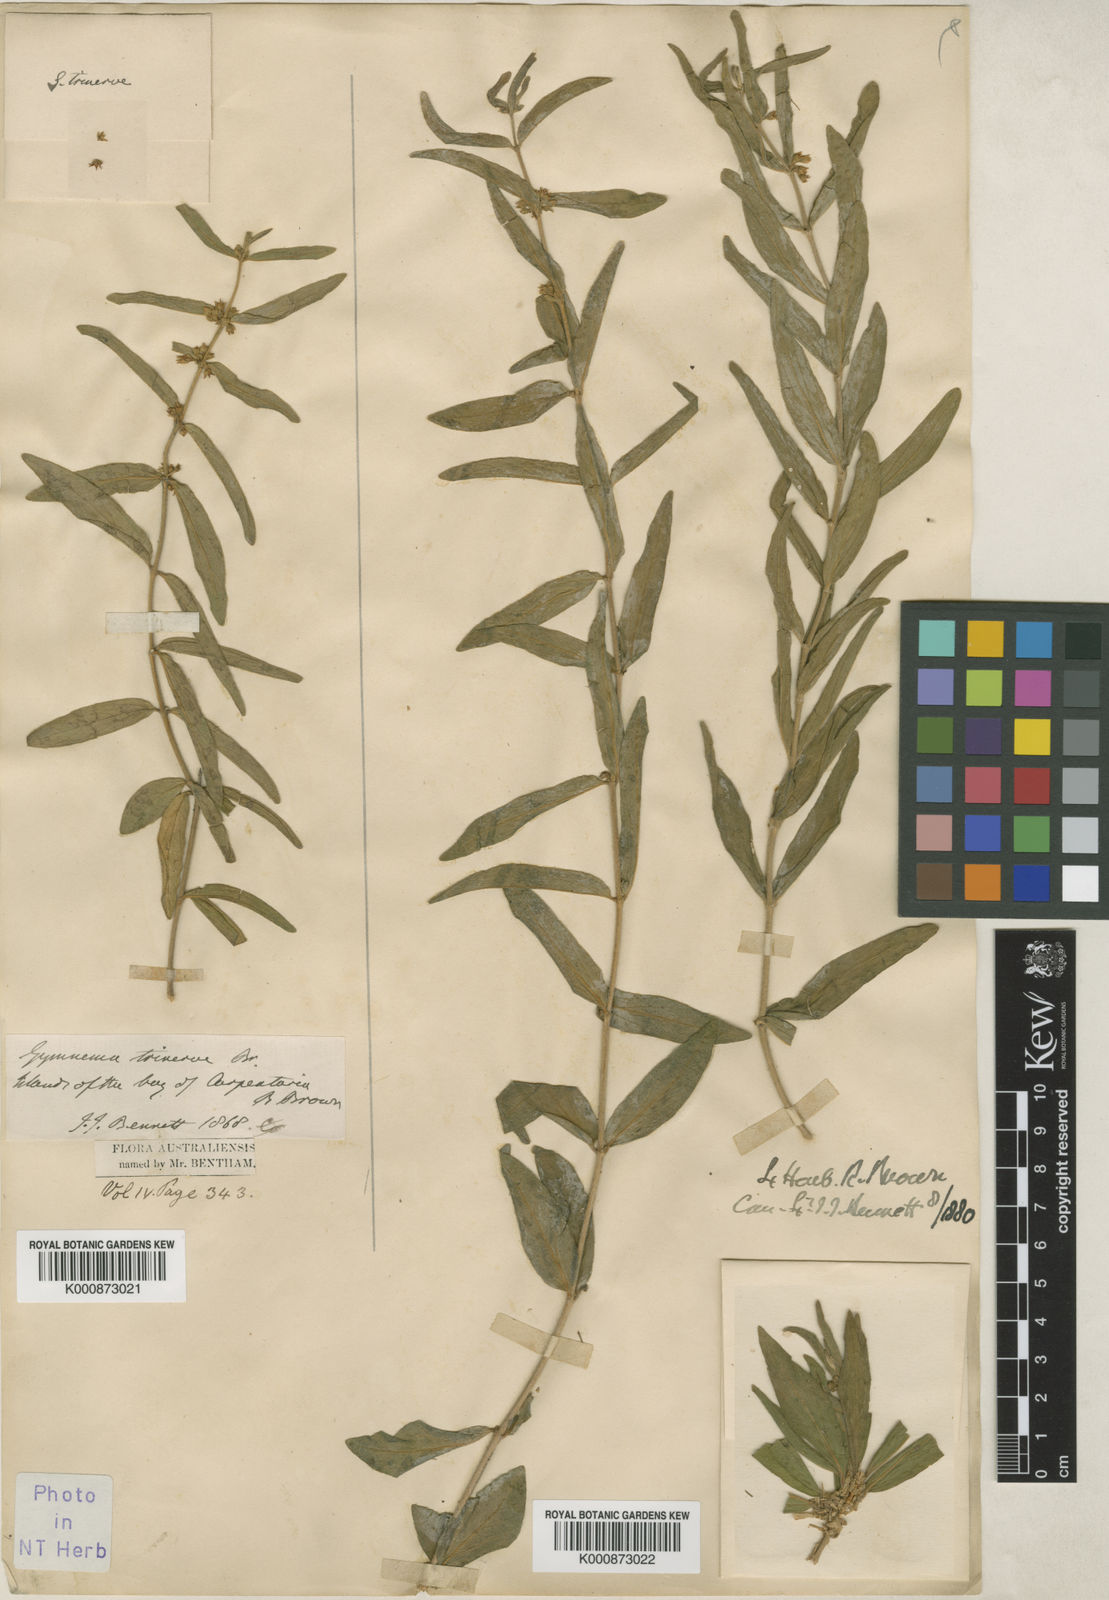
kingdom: Plantae
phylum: Tracheophyta
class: Magnoliopsida
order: Gentianales
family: Apocynaceae
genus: Gymnema
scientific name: Gymnema trinerve
